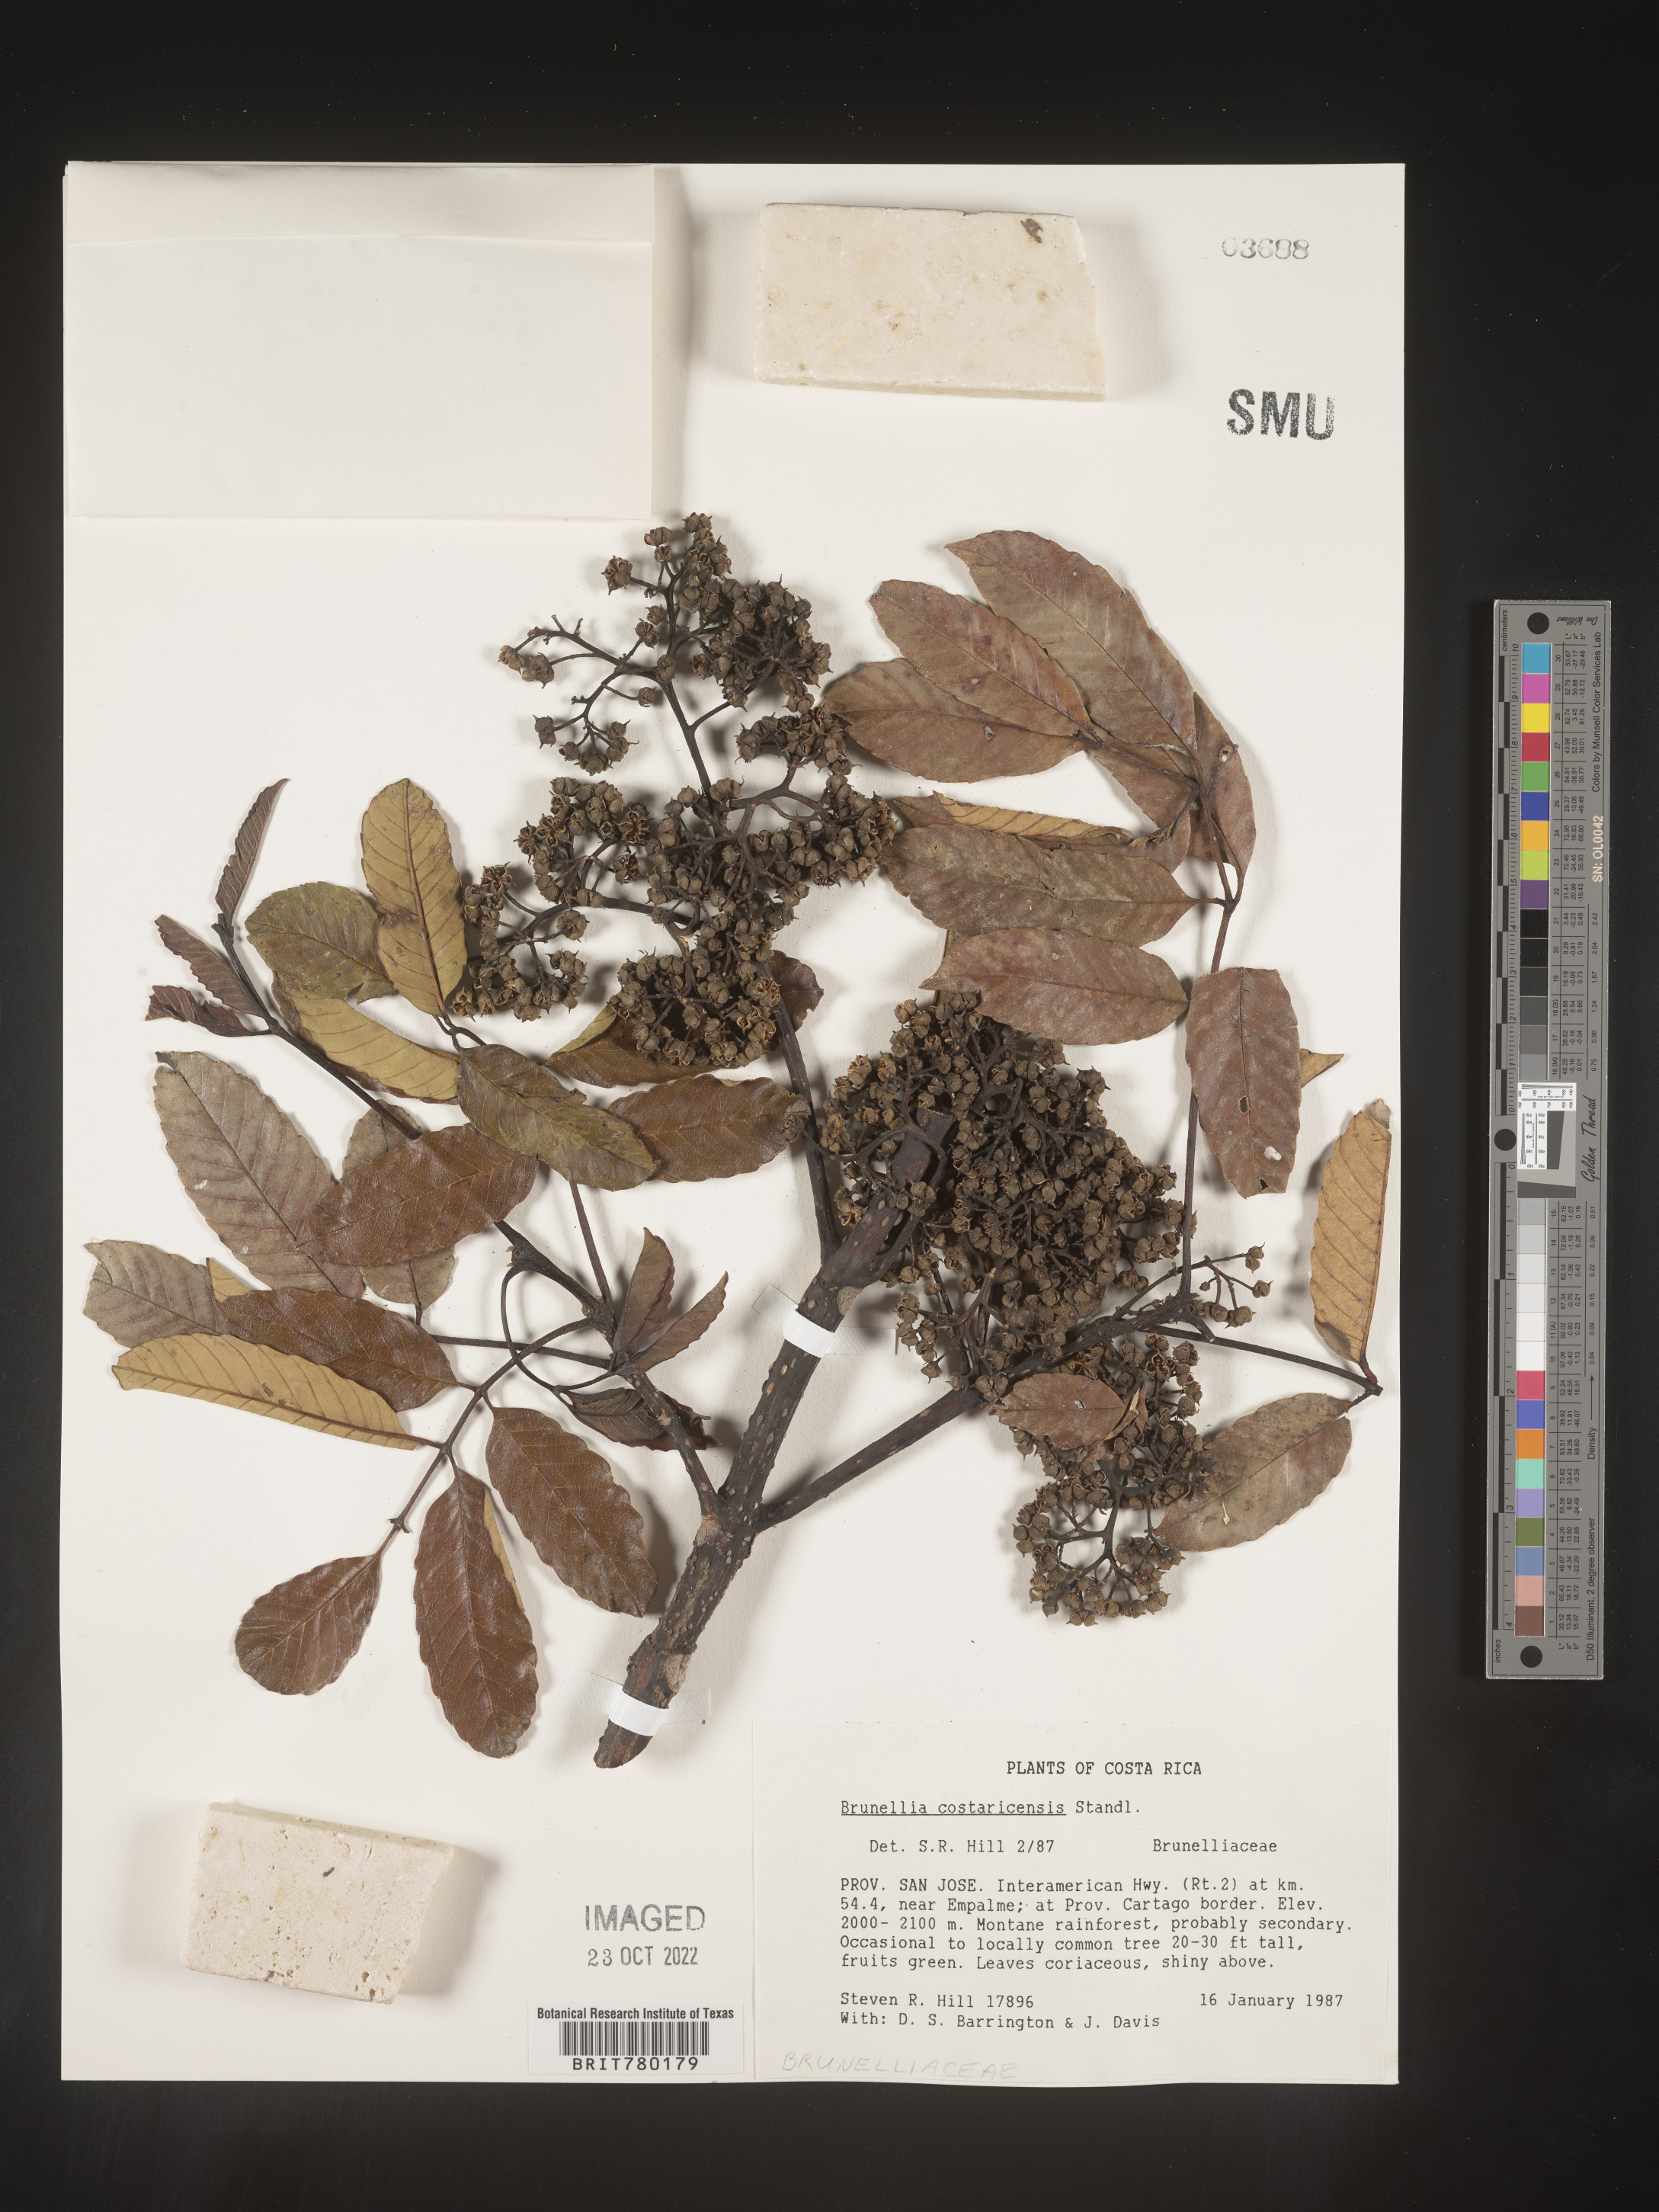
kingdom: Plantae
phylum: Tracheophyta
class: Magnoliopsida
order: Oxalidales
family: Brunelliaceae
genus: Brunellia
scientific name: Brunellia
